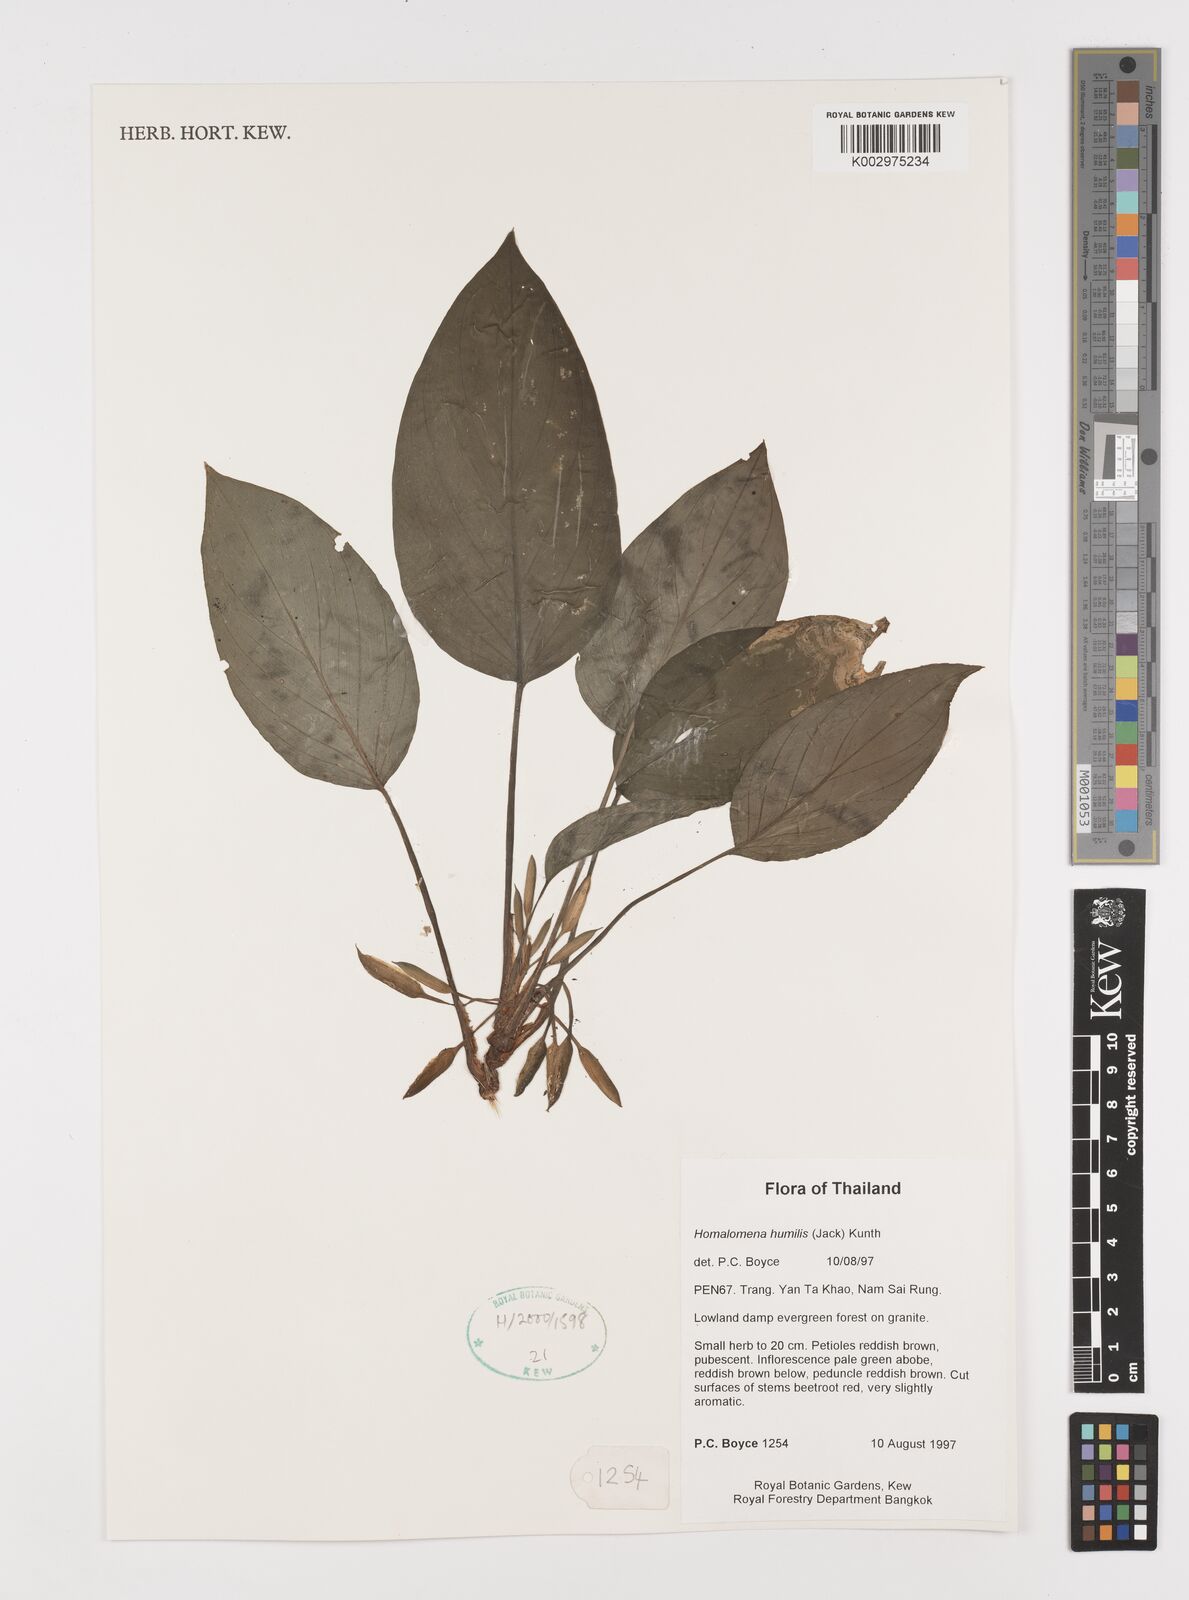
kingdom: Plantae
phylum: Tracheophyta
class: Liliopsida
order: Alismatales
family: Araceae
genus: Homalomena
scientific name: Homalomena humilis
